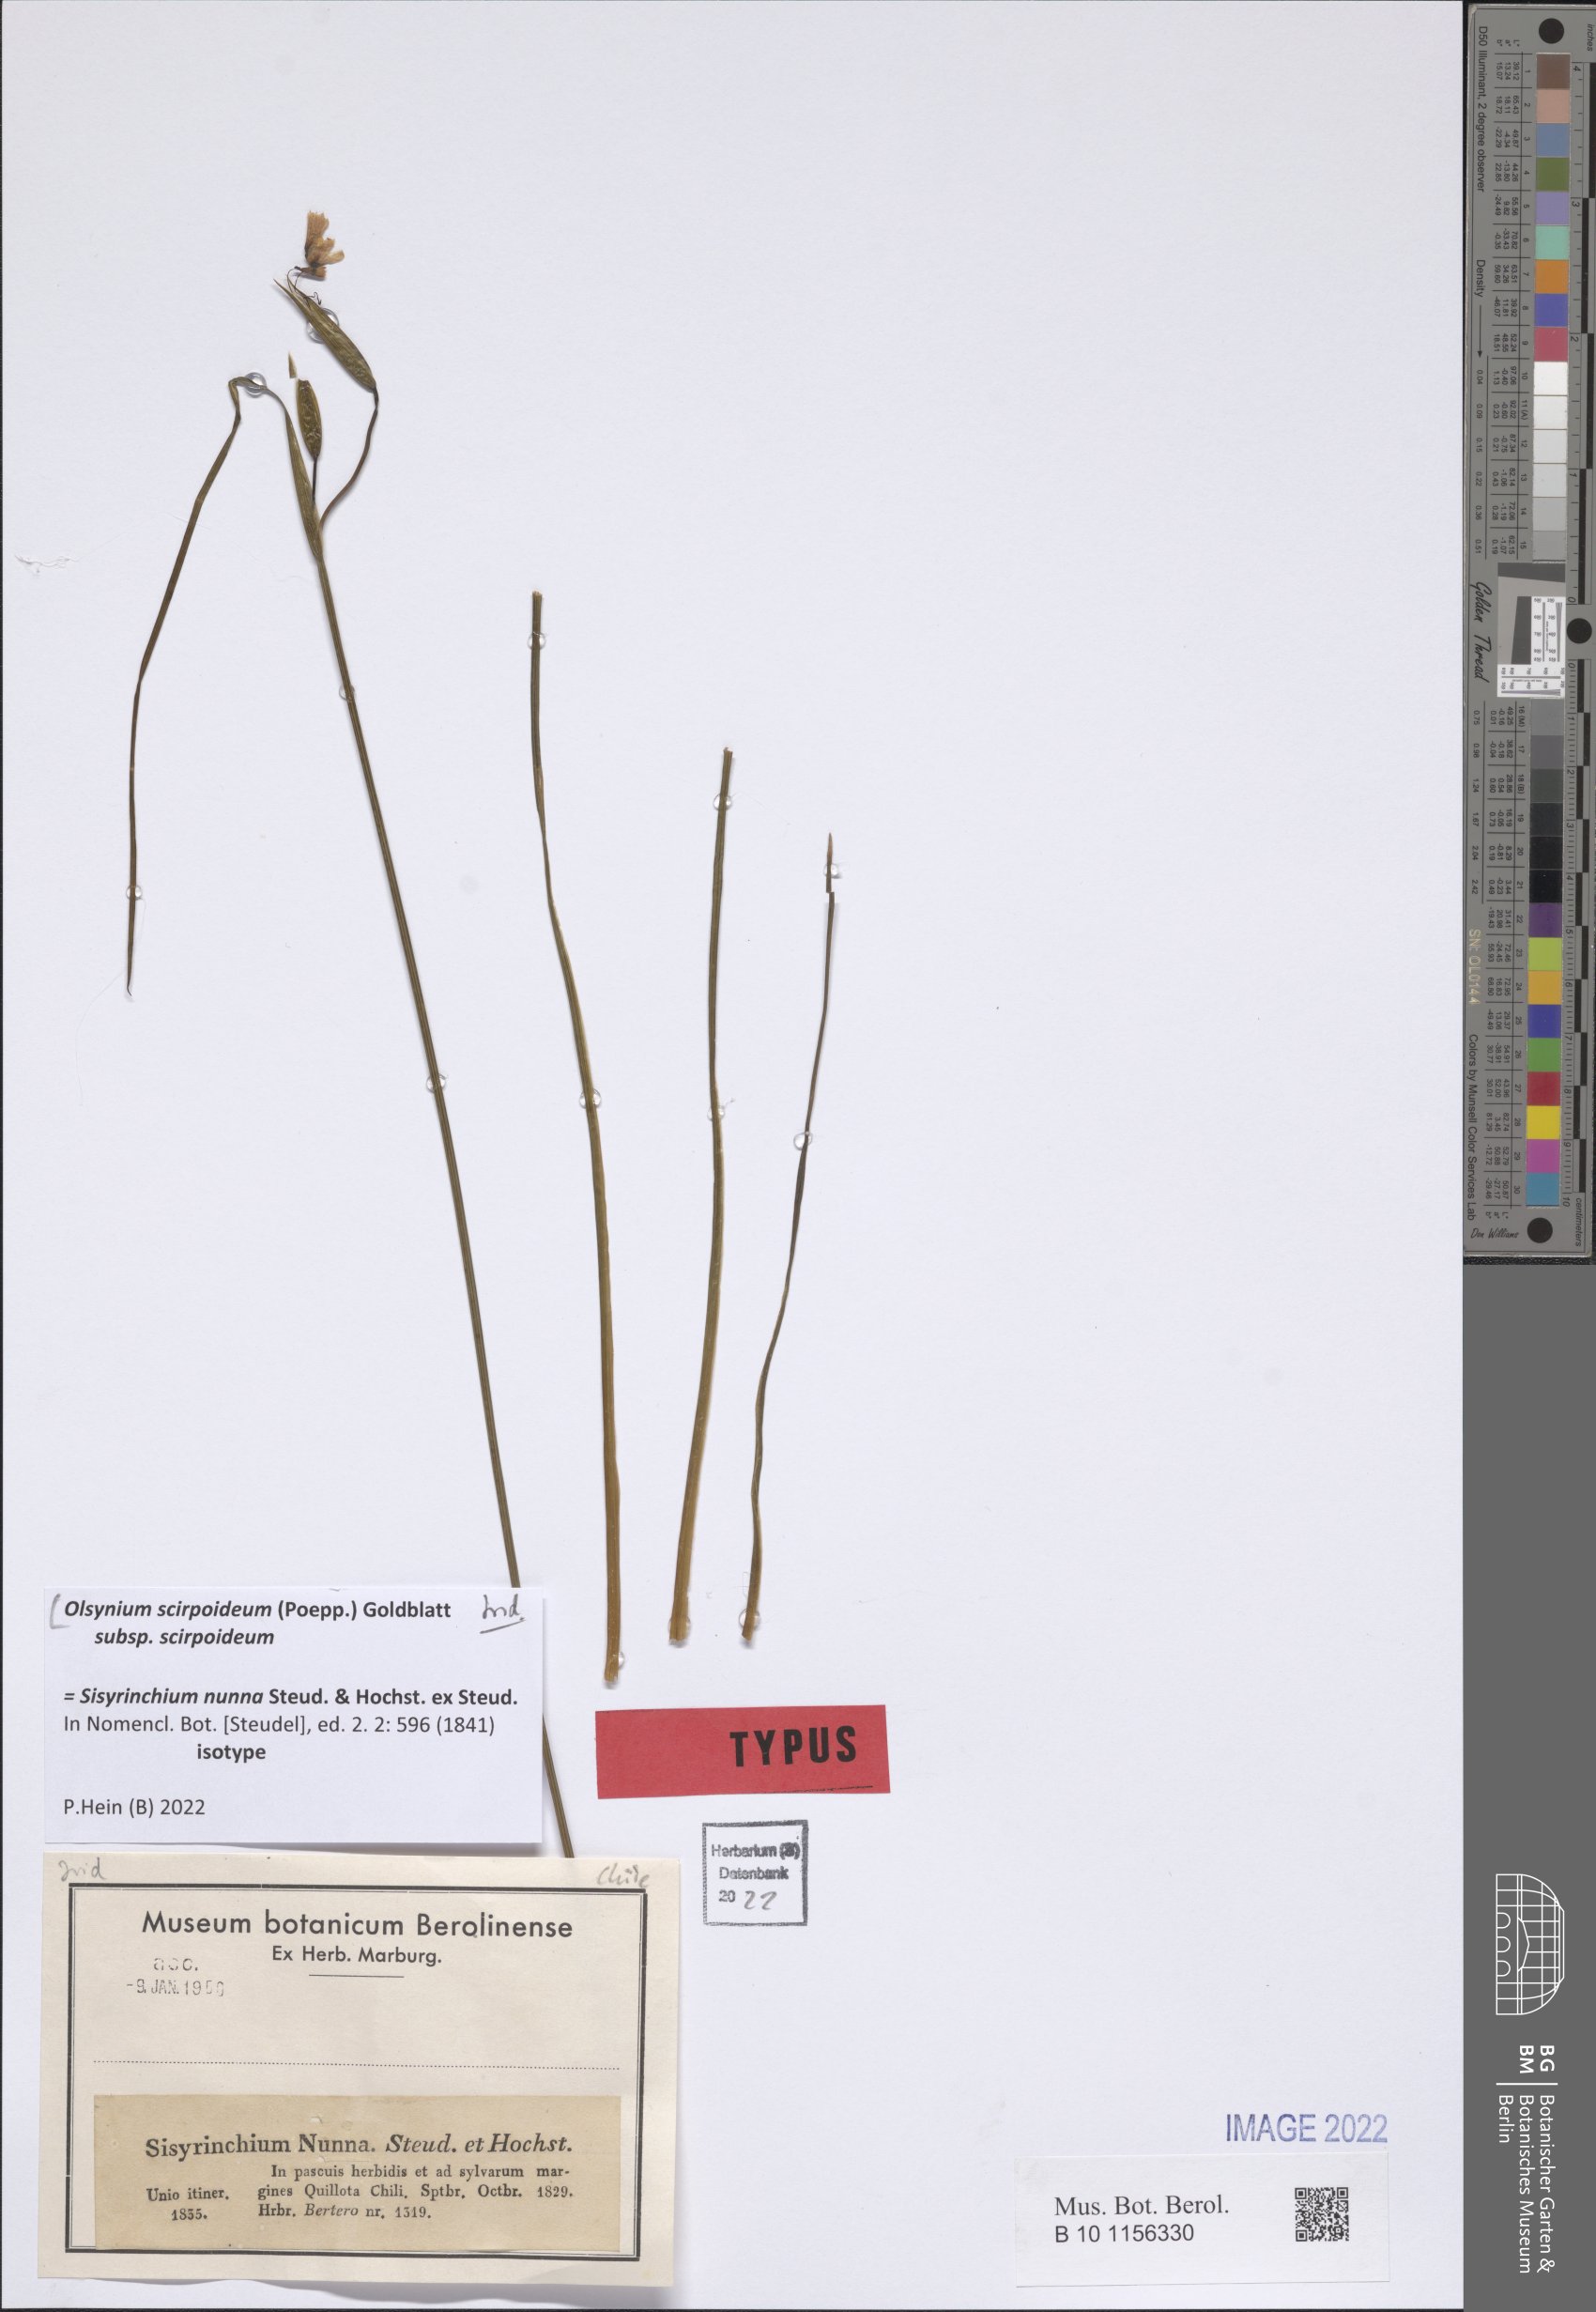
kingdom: Plantae
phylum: Tracheophyta
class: Liliopsida
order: Asparagales
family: Iridaceae
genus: Olsynium
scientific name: Olsynium scirpoideum
